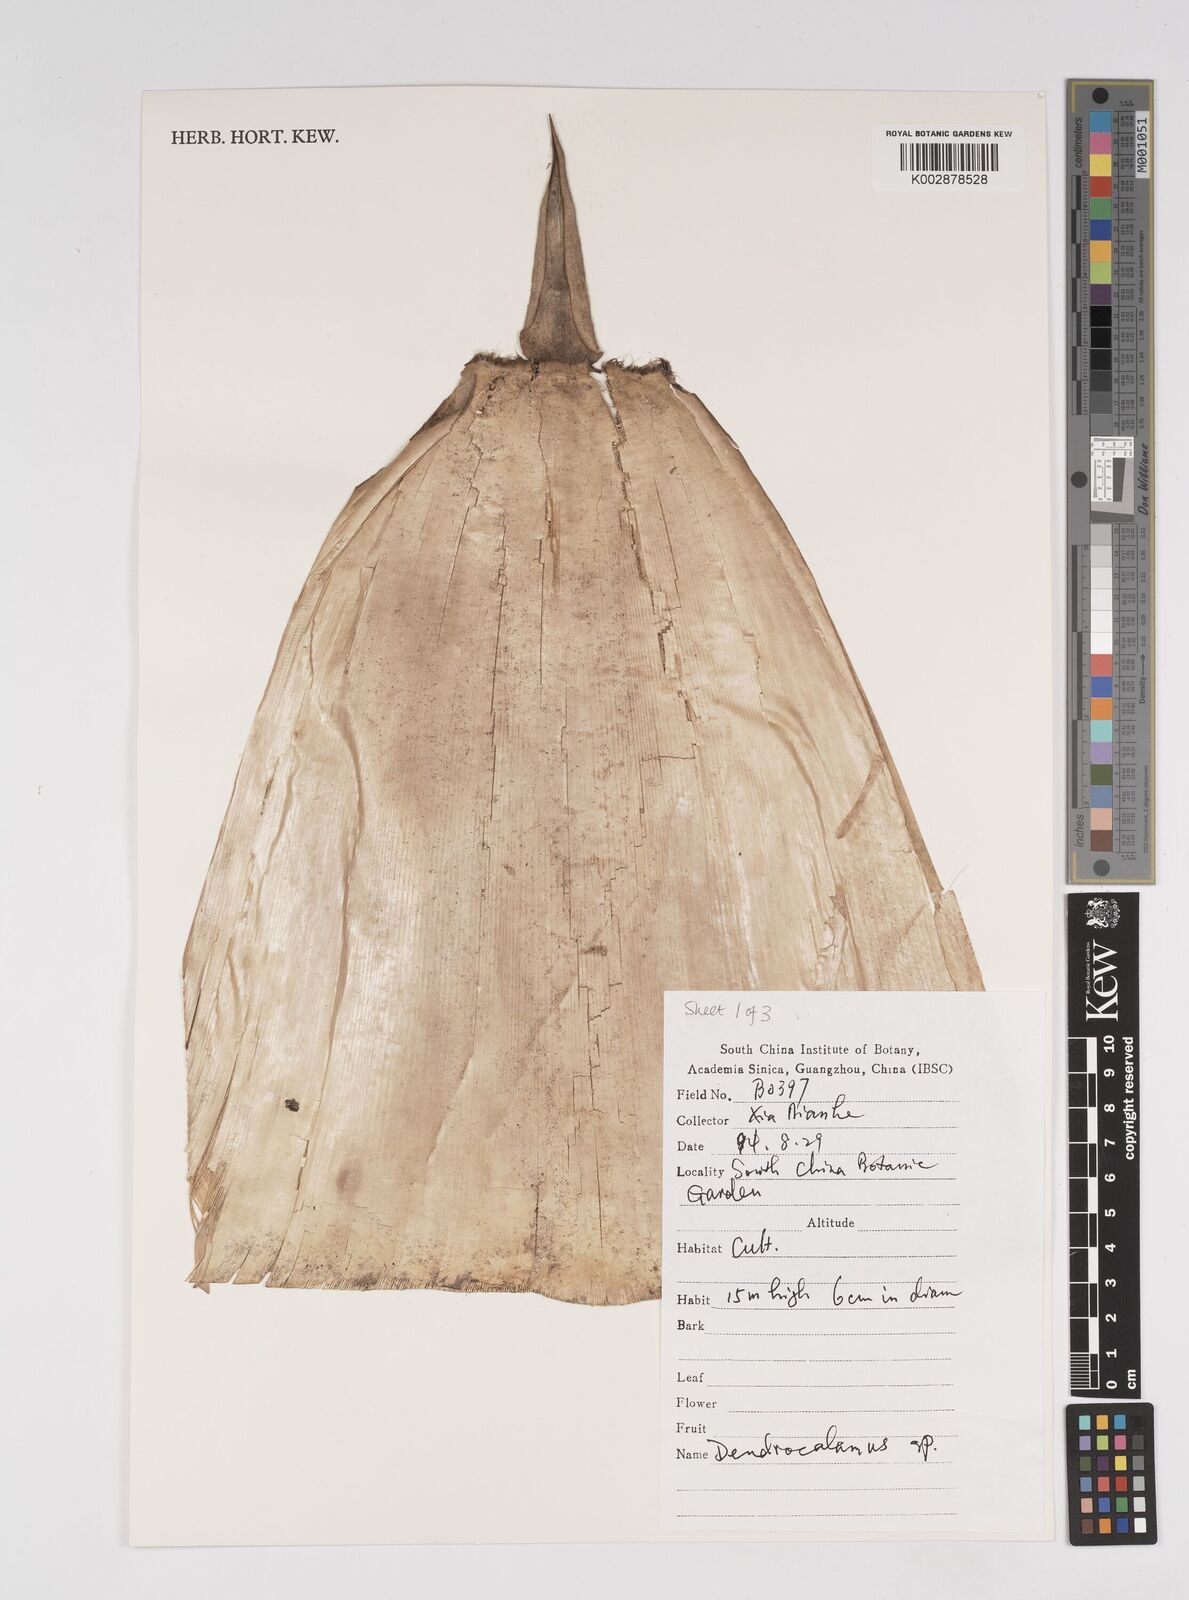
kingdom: Plantae
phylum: Tracheophyta
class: Liliopsida
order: Poales
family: Poaceae
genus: Dendrocalamus
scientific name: Dendrocalamus
